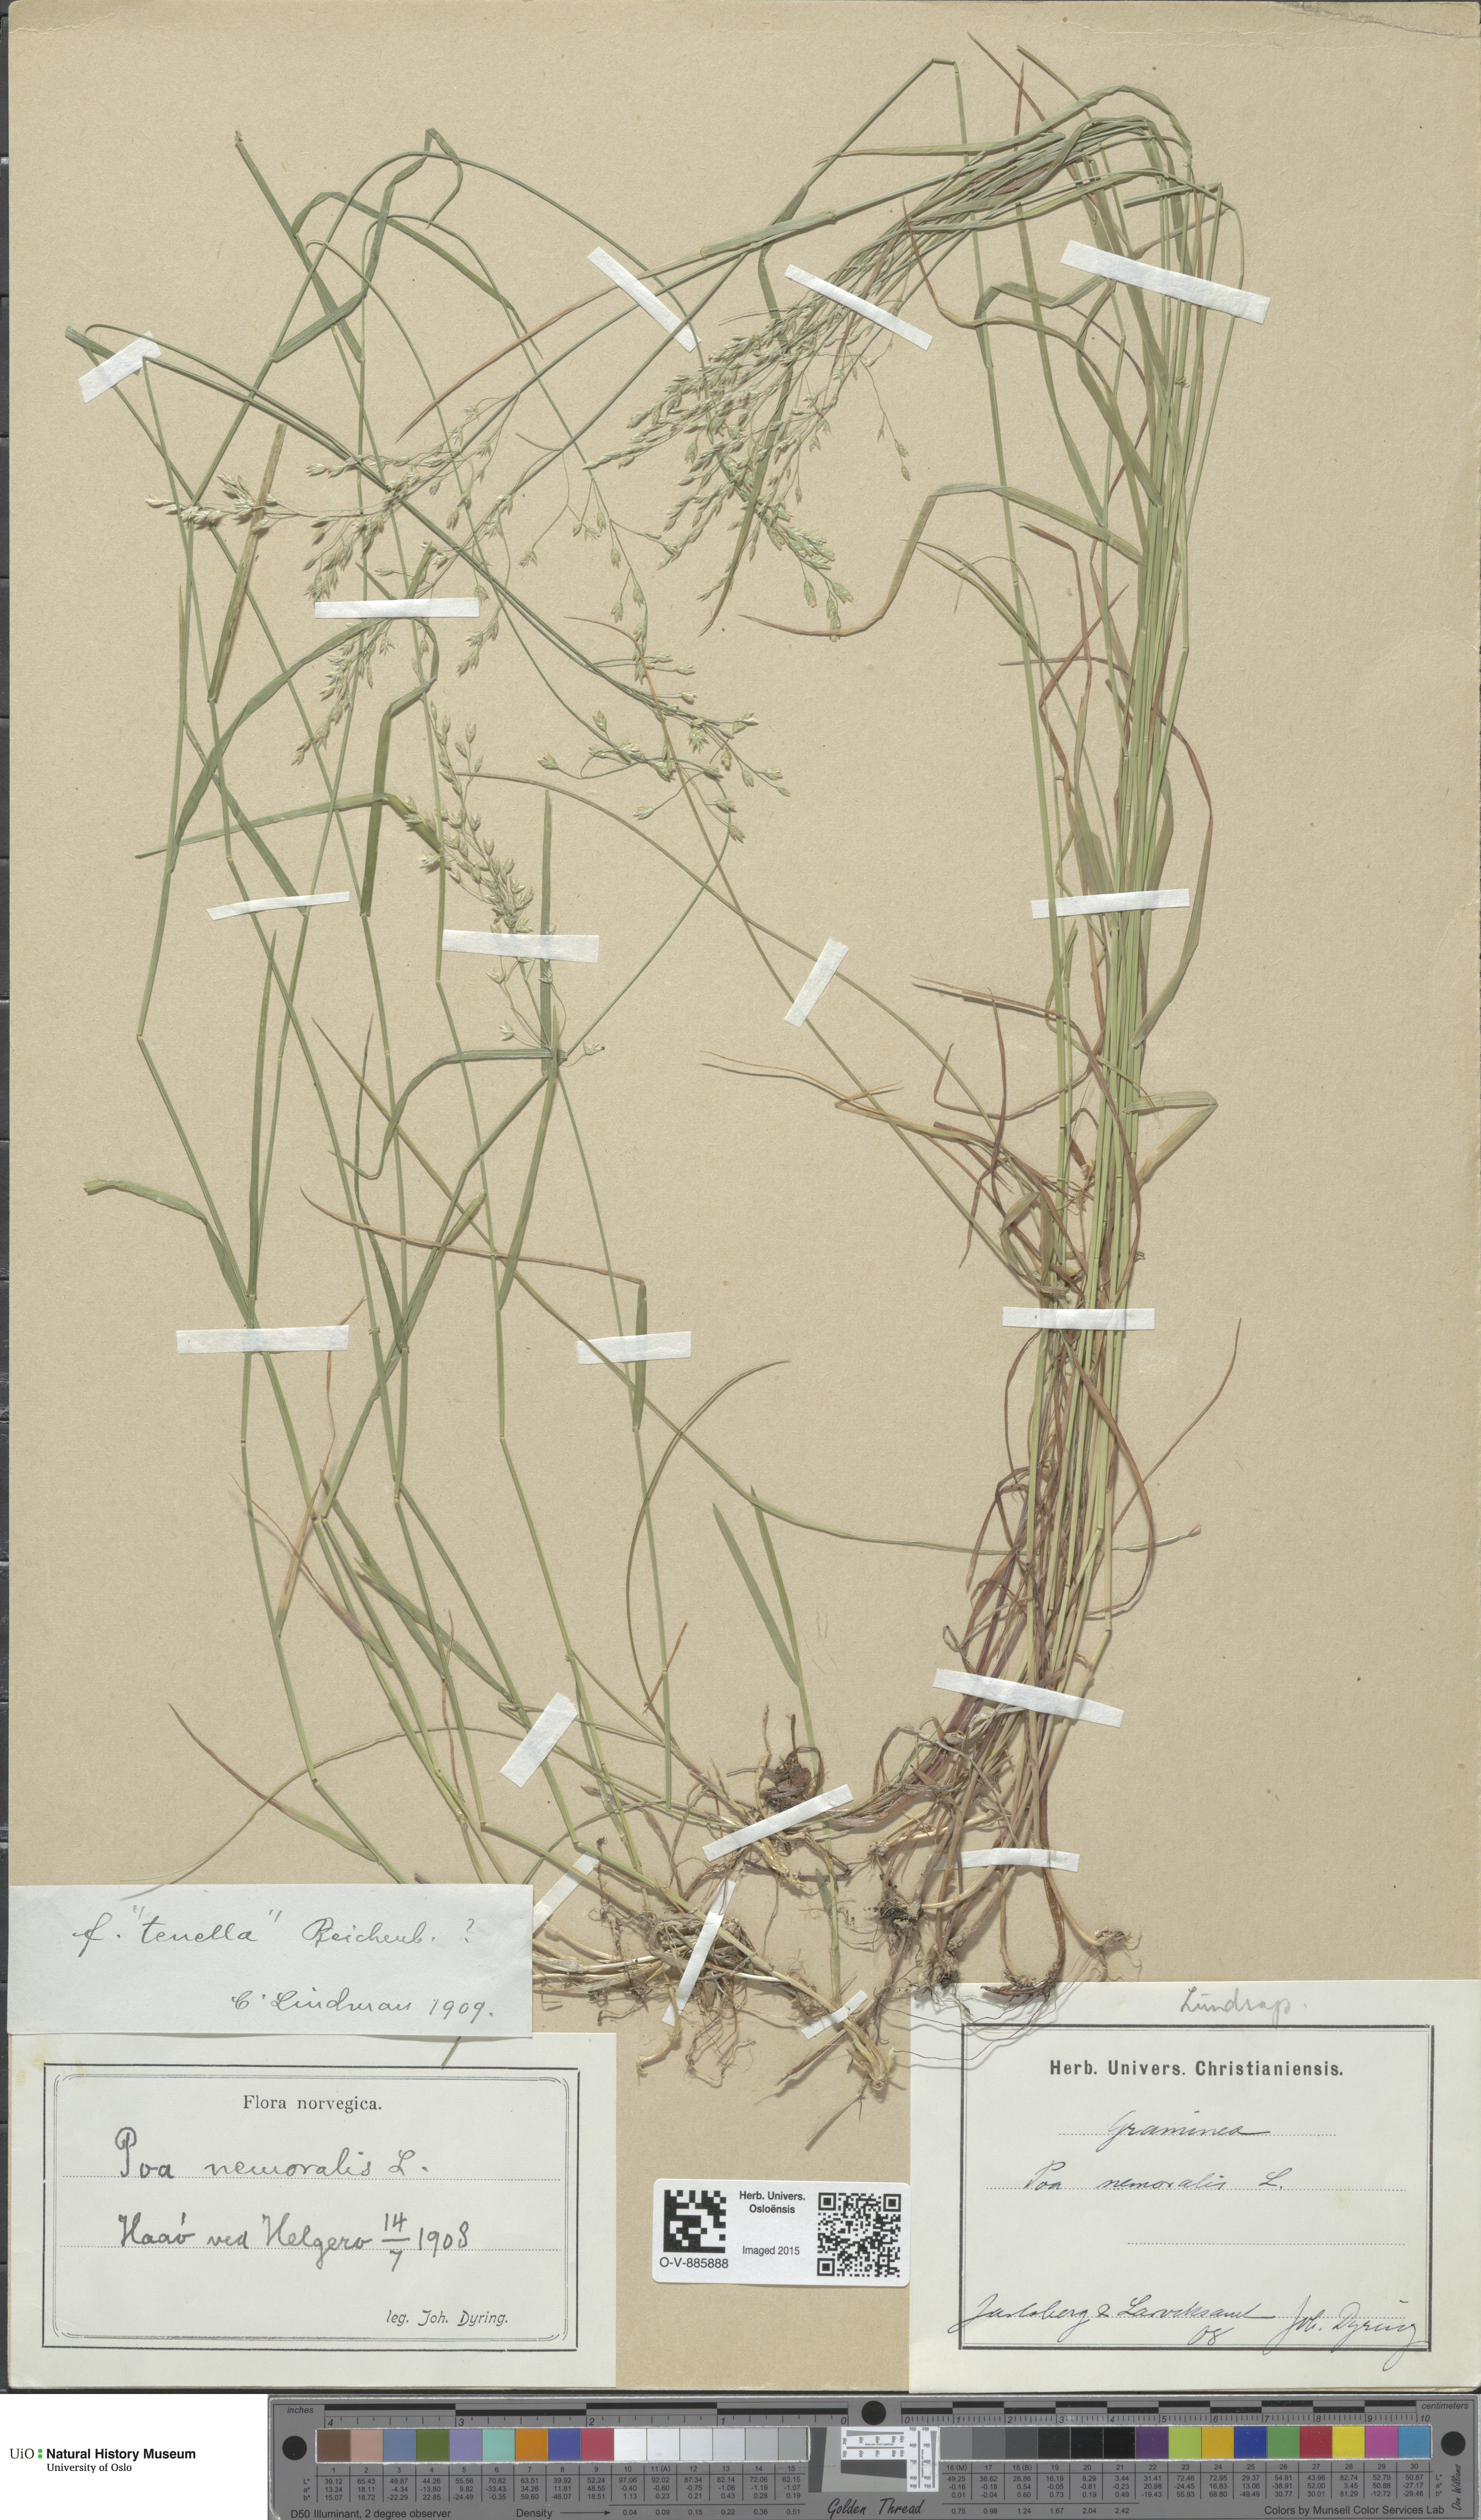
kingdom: Plantae
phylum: Tracheophyta
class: Liliopsida
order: Poales
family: Poaceae
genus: Poa
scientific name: Poa nemoralis
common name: Wood bluegrass
